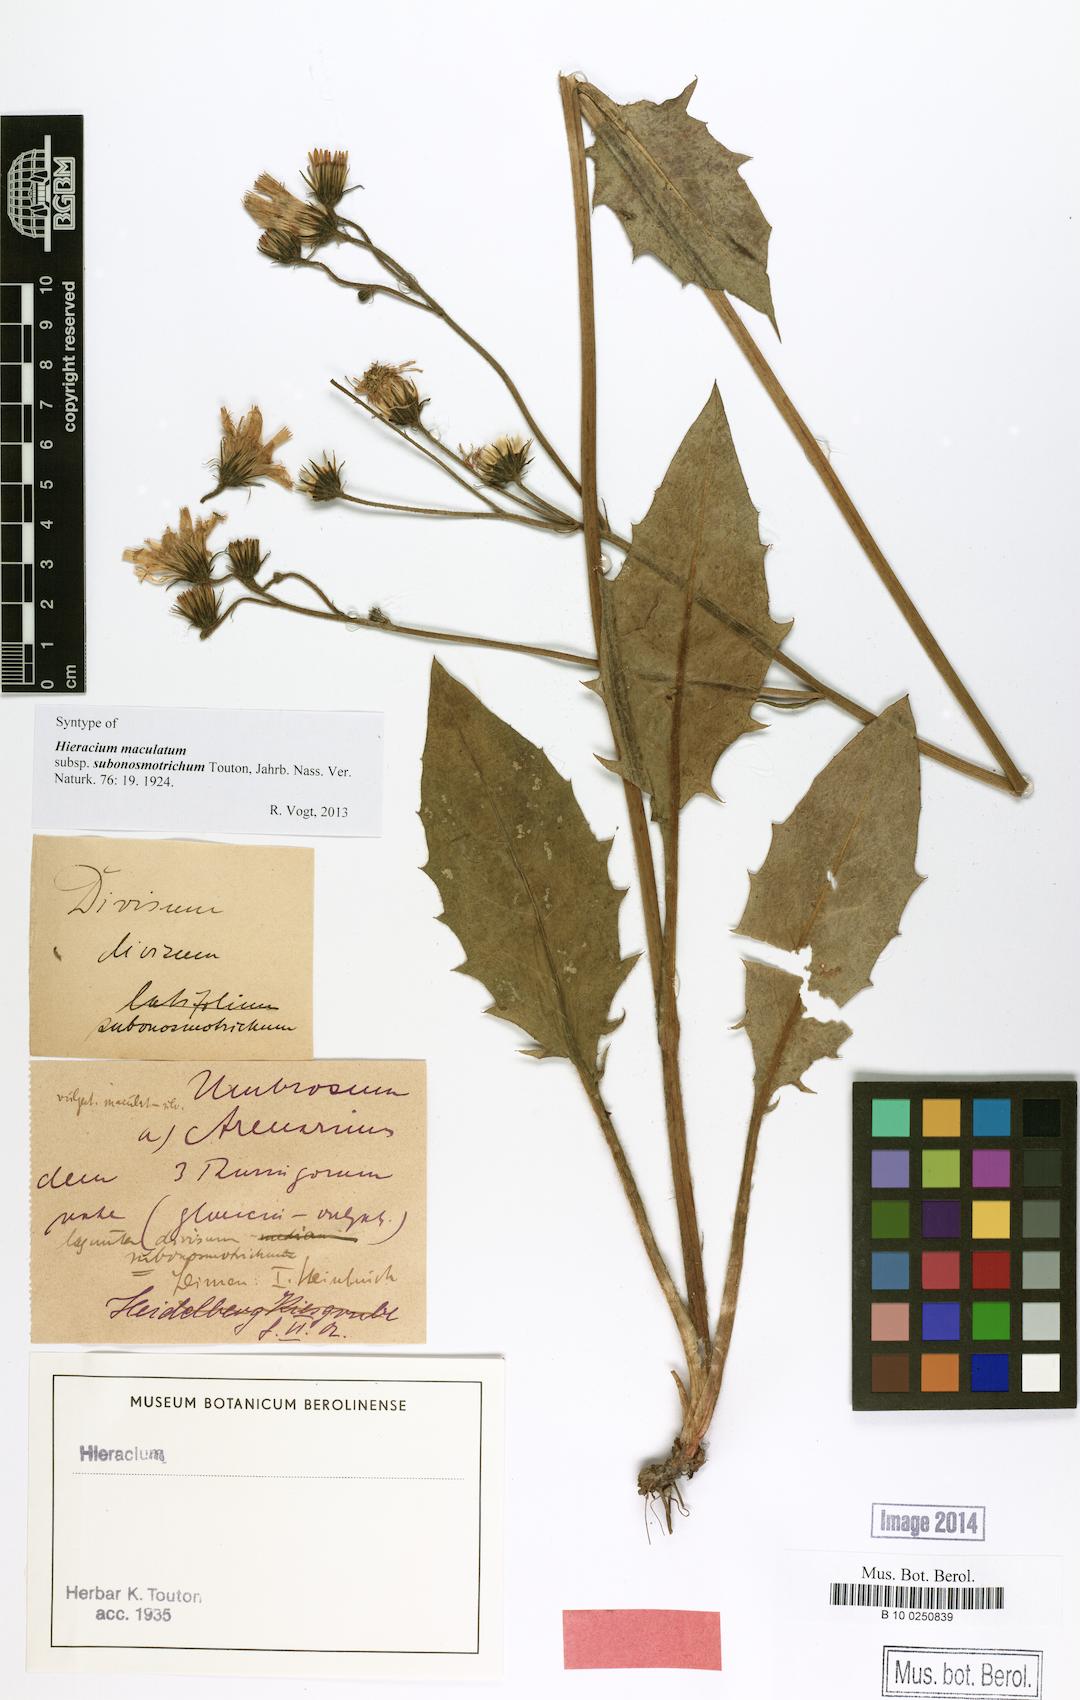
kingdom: Plantae
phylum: Tracheophyta
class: Magnoliopsida
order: Asterales
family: Asteraceae
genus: Hieracium
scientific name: Hieracium maculatum
